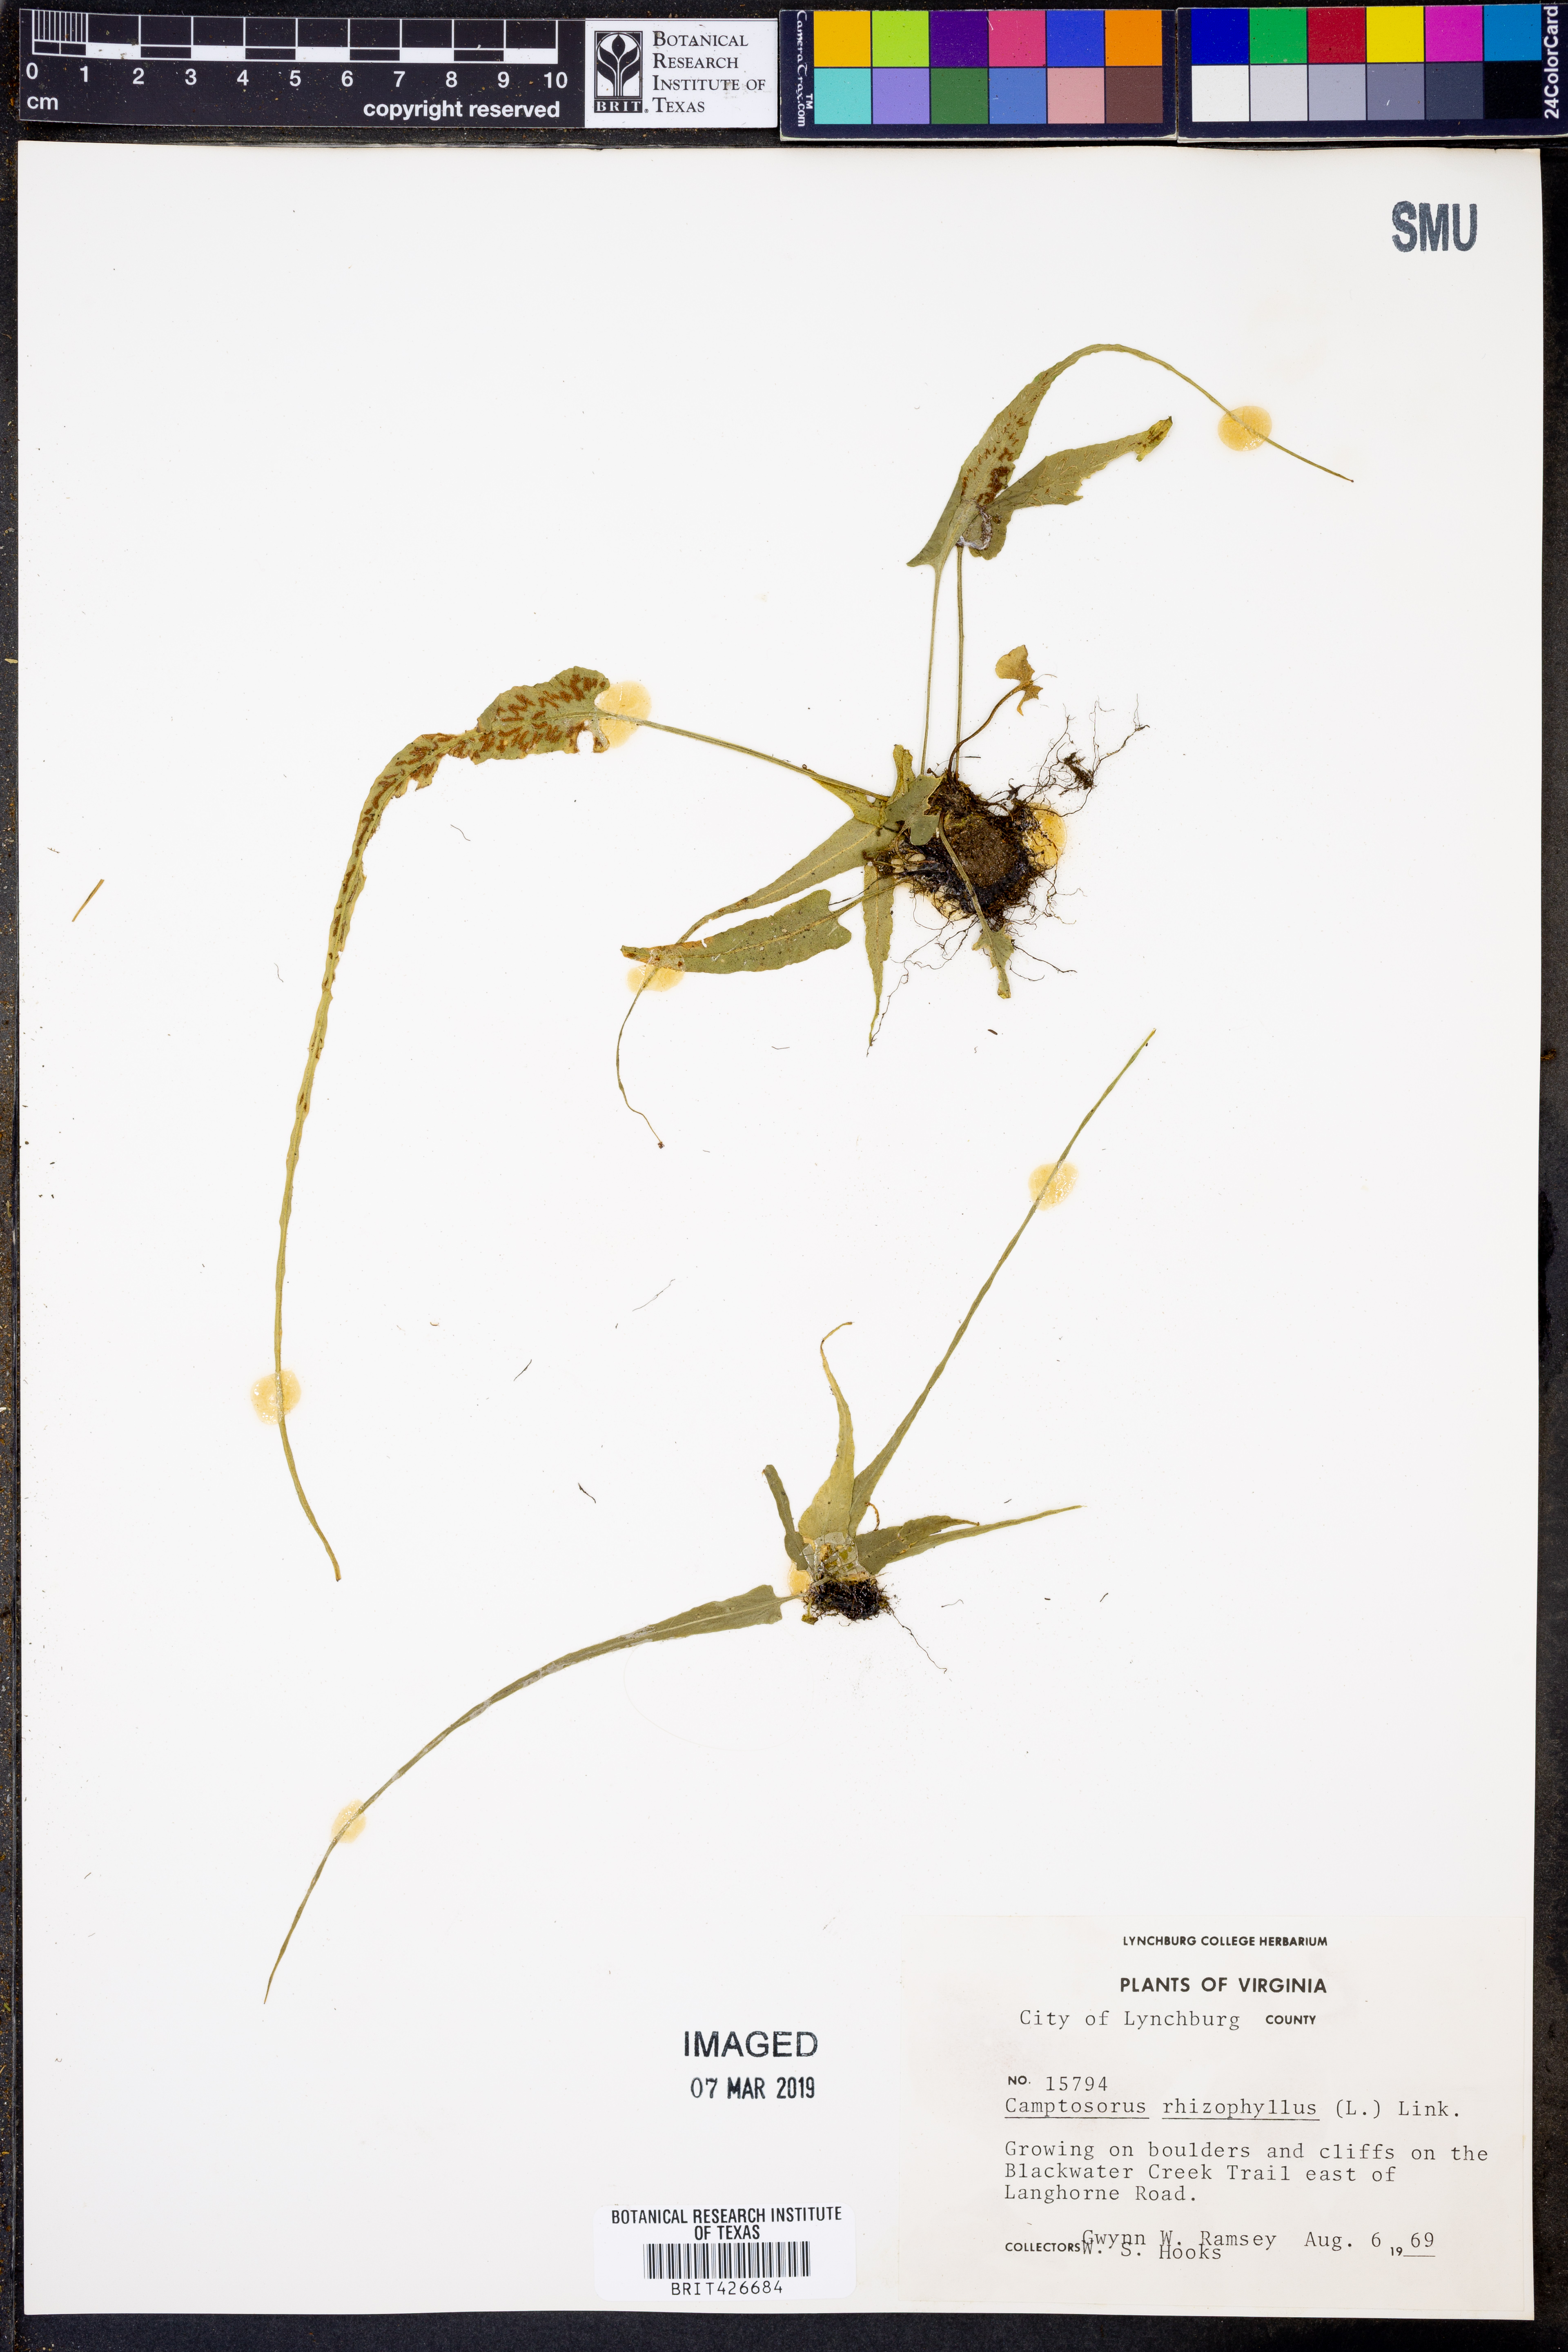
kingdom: Plantae
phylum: Tracheophyta
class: Polypodiopsida
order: Polypodiales
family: Aspleniaceae
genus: Asplenium
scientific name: Asplenium rhizophyllum
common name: Walking fern
